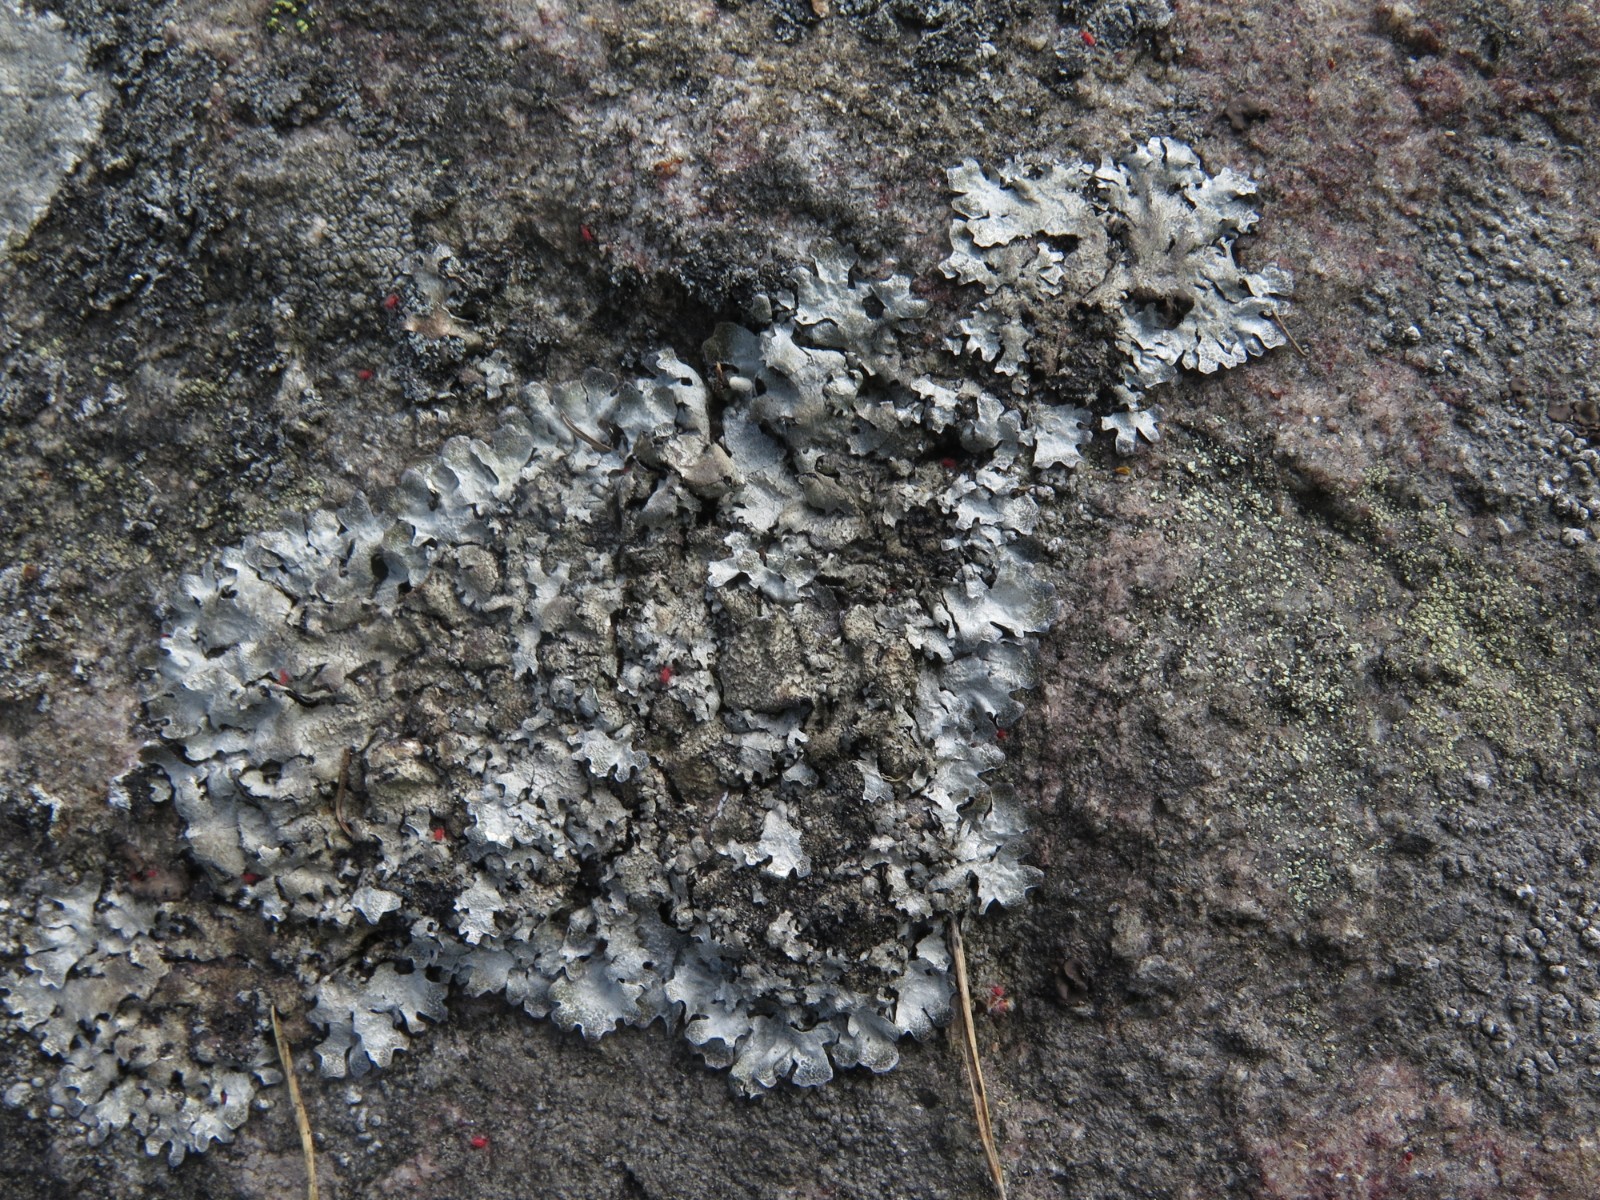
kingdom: Fungi
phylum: Ascomycota
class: Lecanoromycetes
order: Lecanorales
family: Parmeliaceae
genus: Parmelia
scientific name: Parmelia saxatilis
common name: farve-skållav
